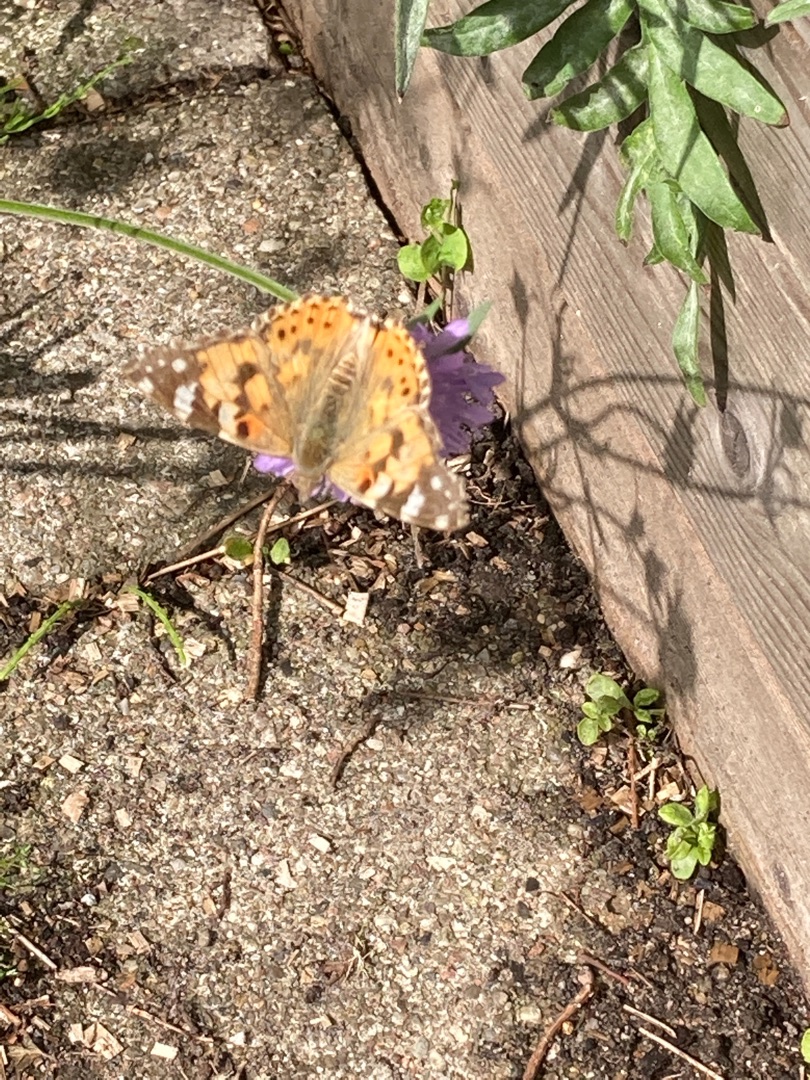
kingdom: Animalia
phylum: Arthropoda
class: Insecta
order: Lepidoptera
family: Nymphalidae
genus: Vanessa
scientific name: Vanessa cardui
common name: Tidselsommerfugl
